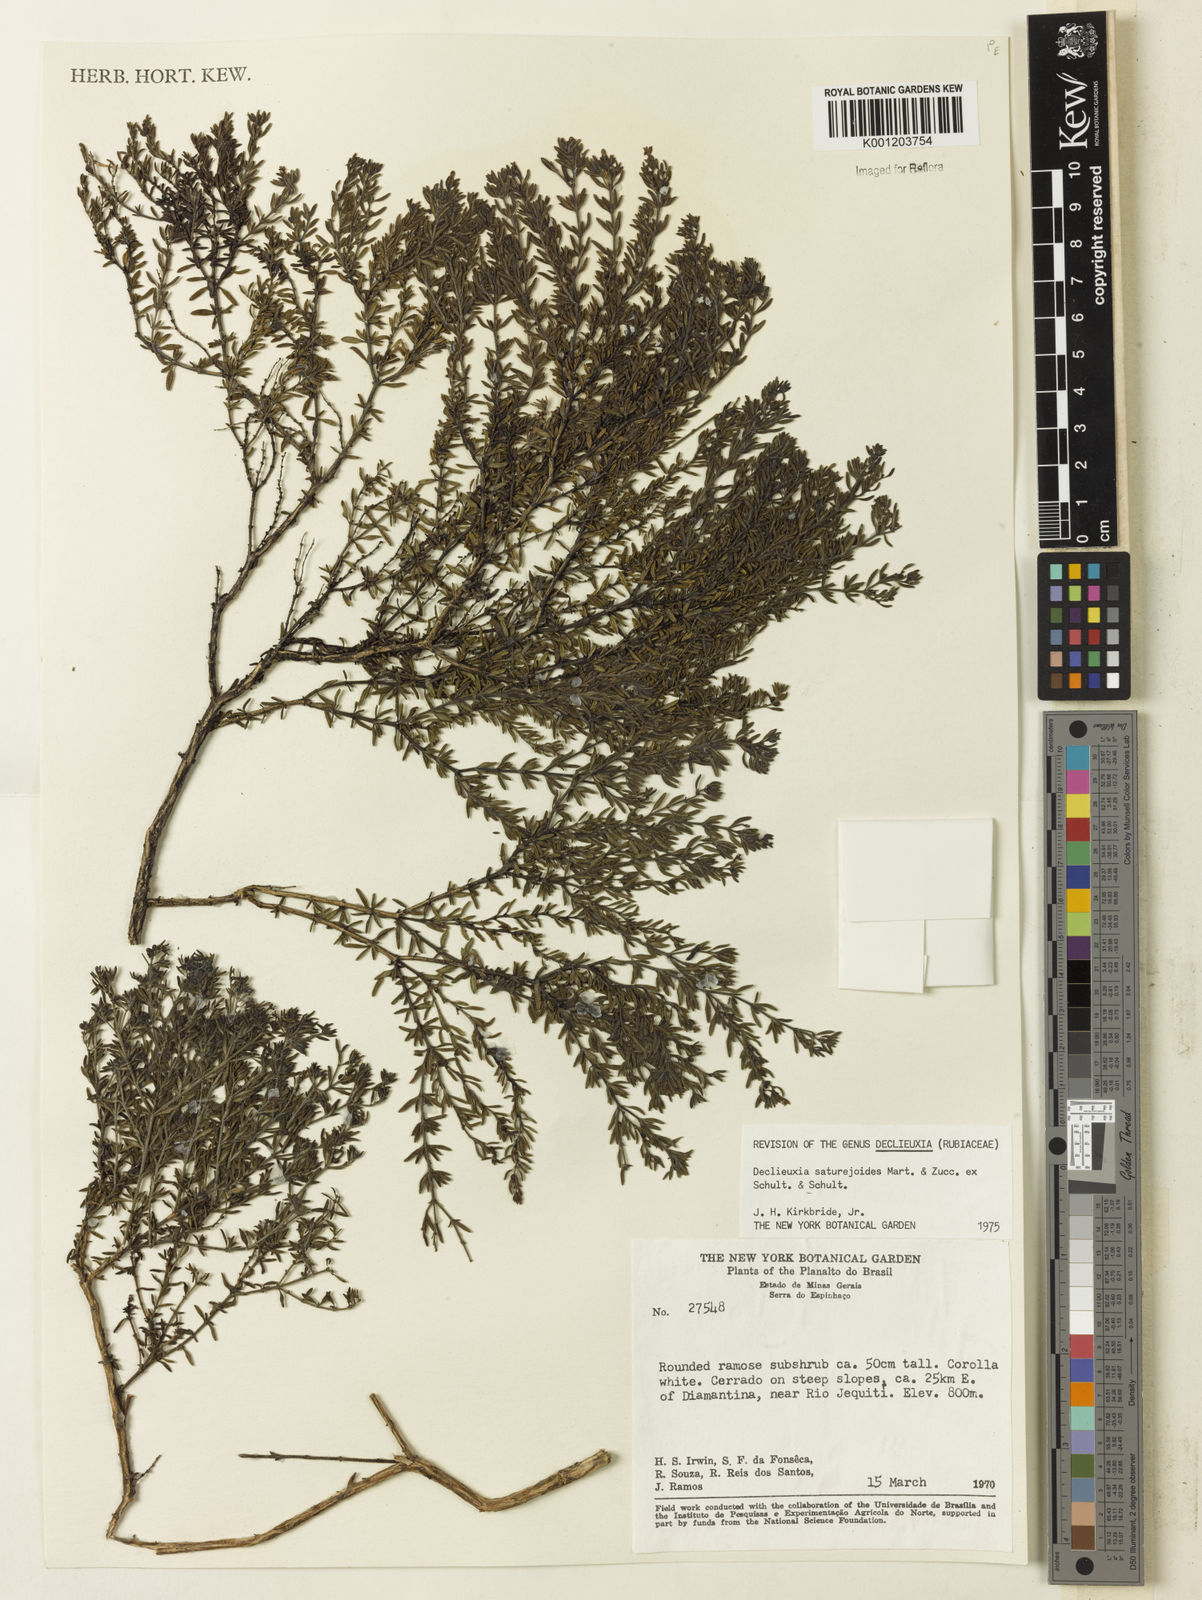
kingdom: Plantae
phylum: Tracheophyta
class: Magnoliopsida
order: Gentianales
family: Rubiaceae
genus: Declieuxia
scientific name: Declieuxia
